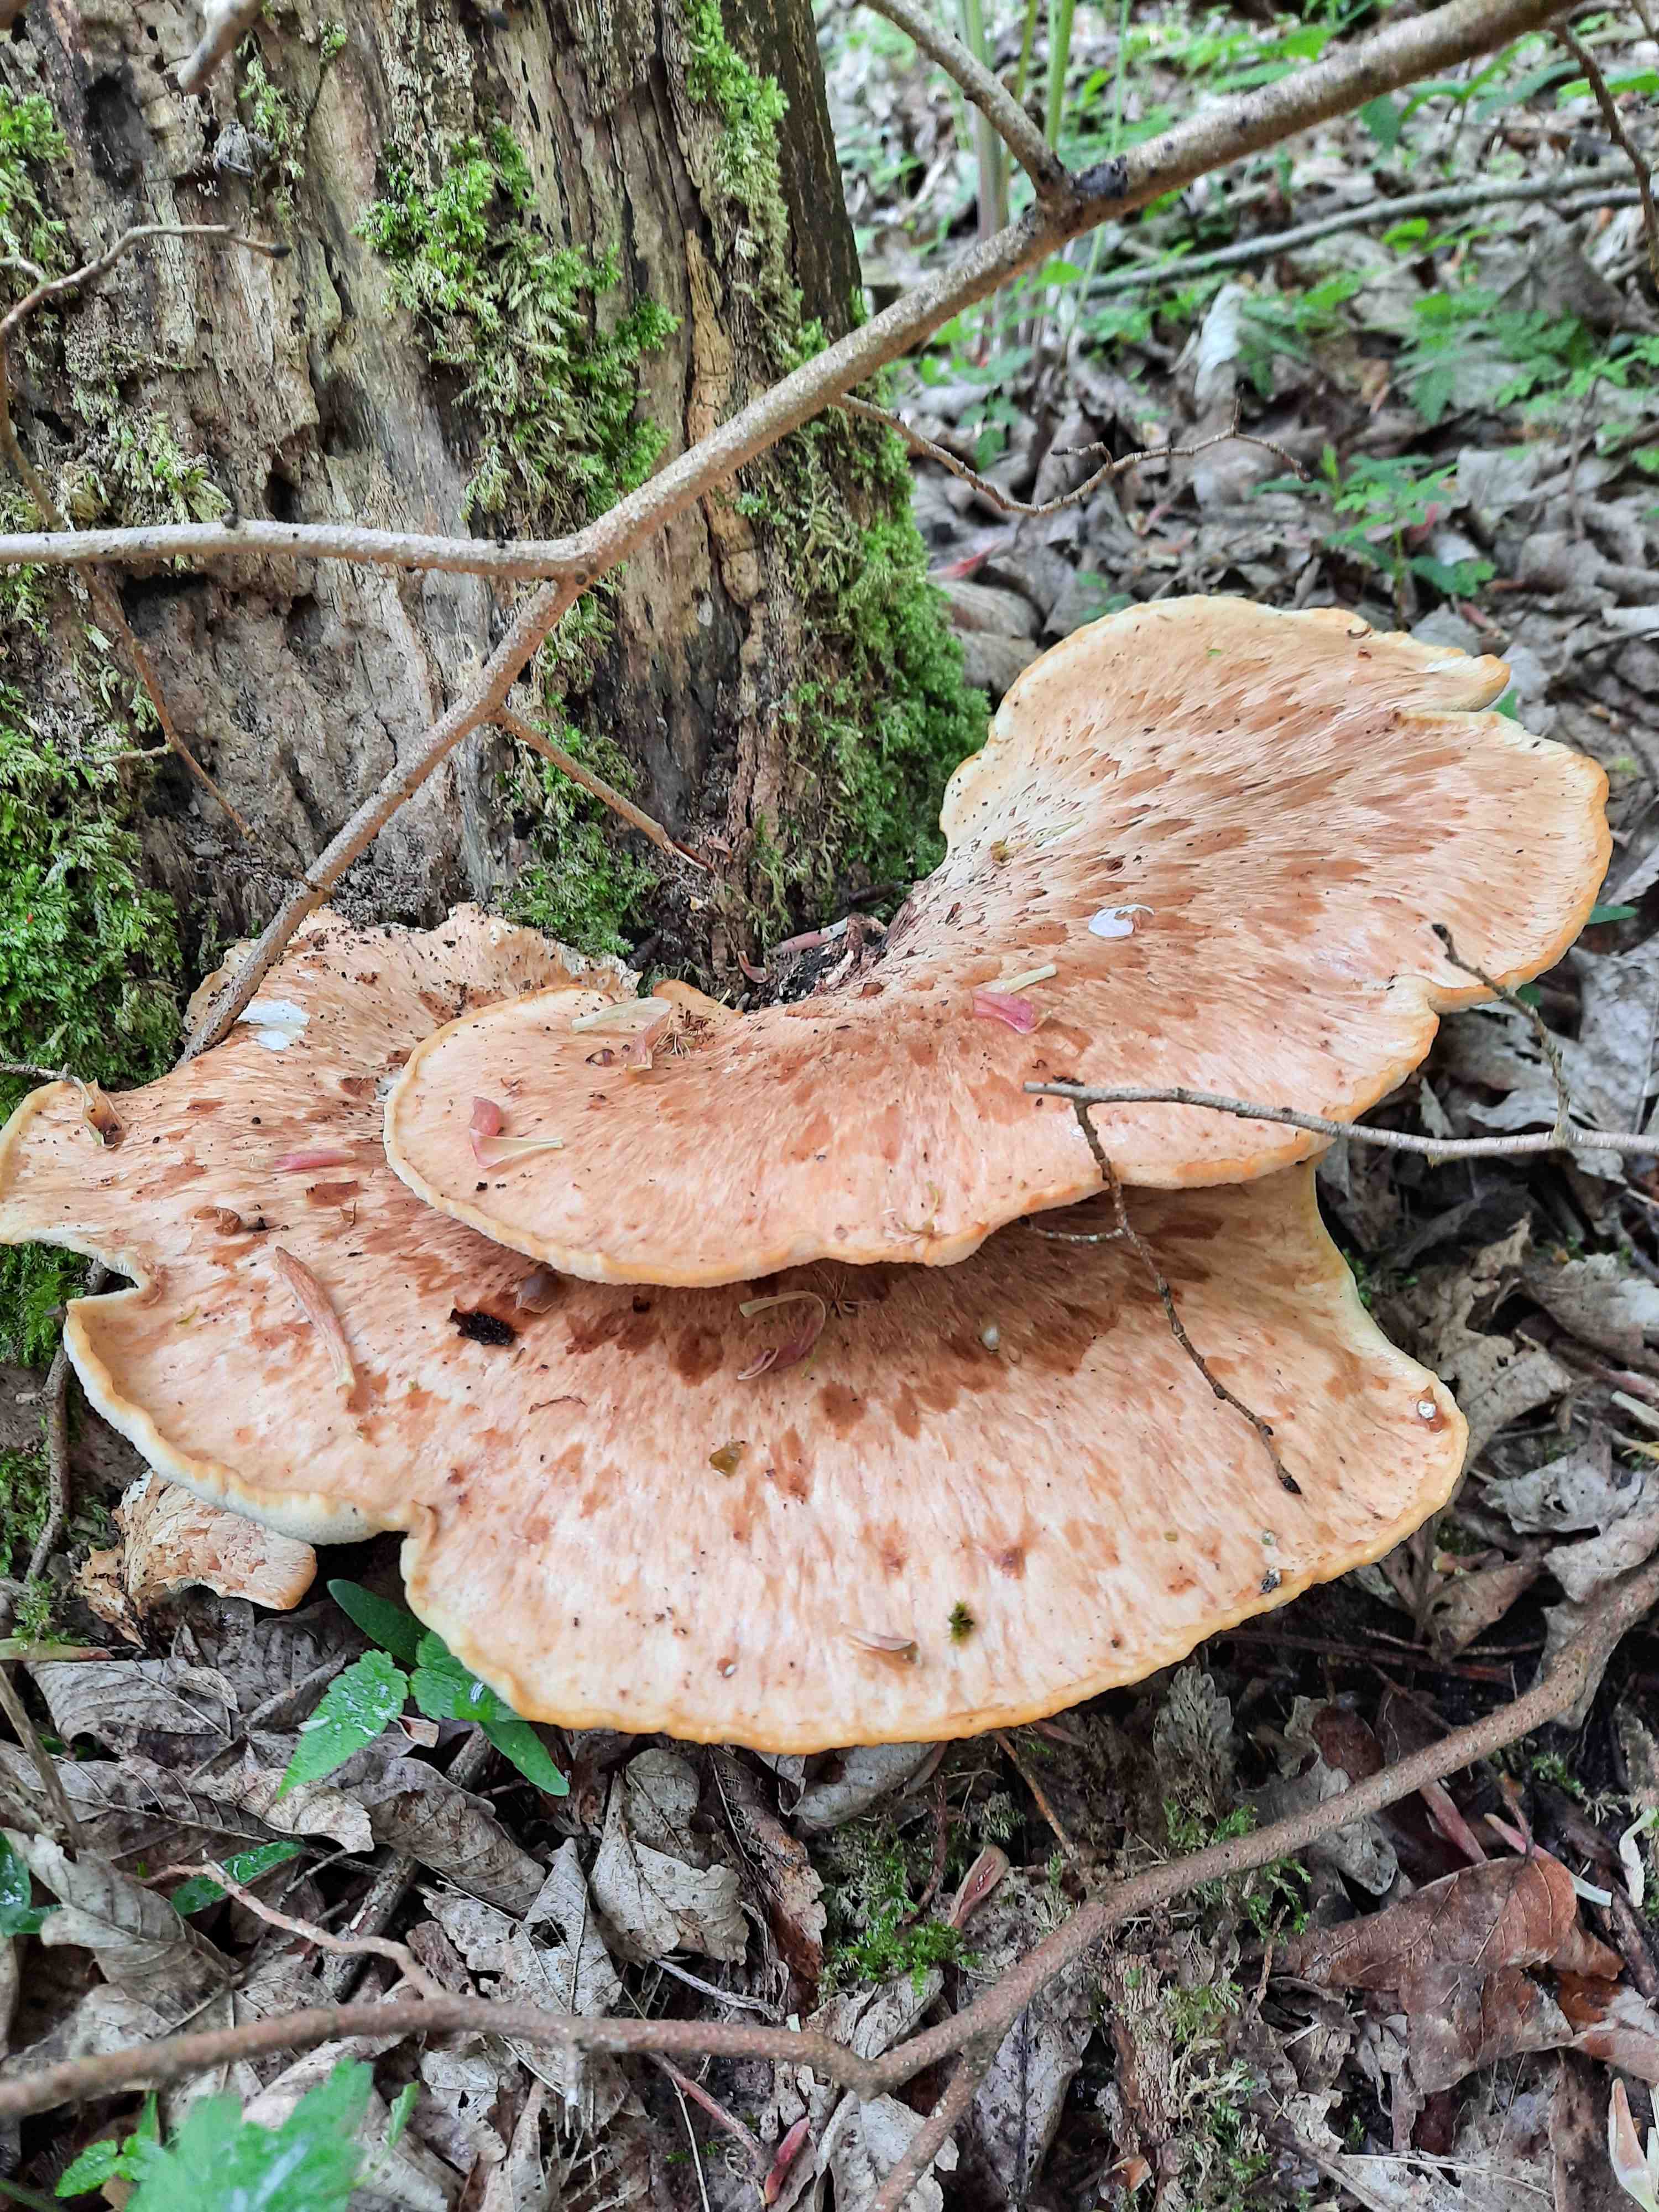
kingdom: Fungi
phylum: Basidiomycota
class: Agaricomycetes
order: Polyporales
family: Polyporaceae
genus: Cerioporus
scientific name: Cerioporus squamosus
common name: skællet stilkporesvamp
